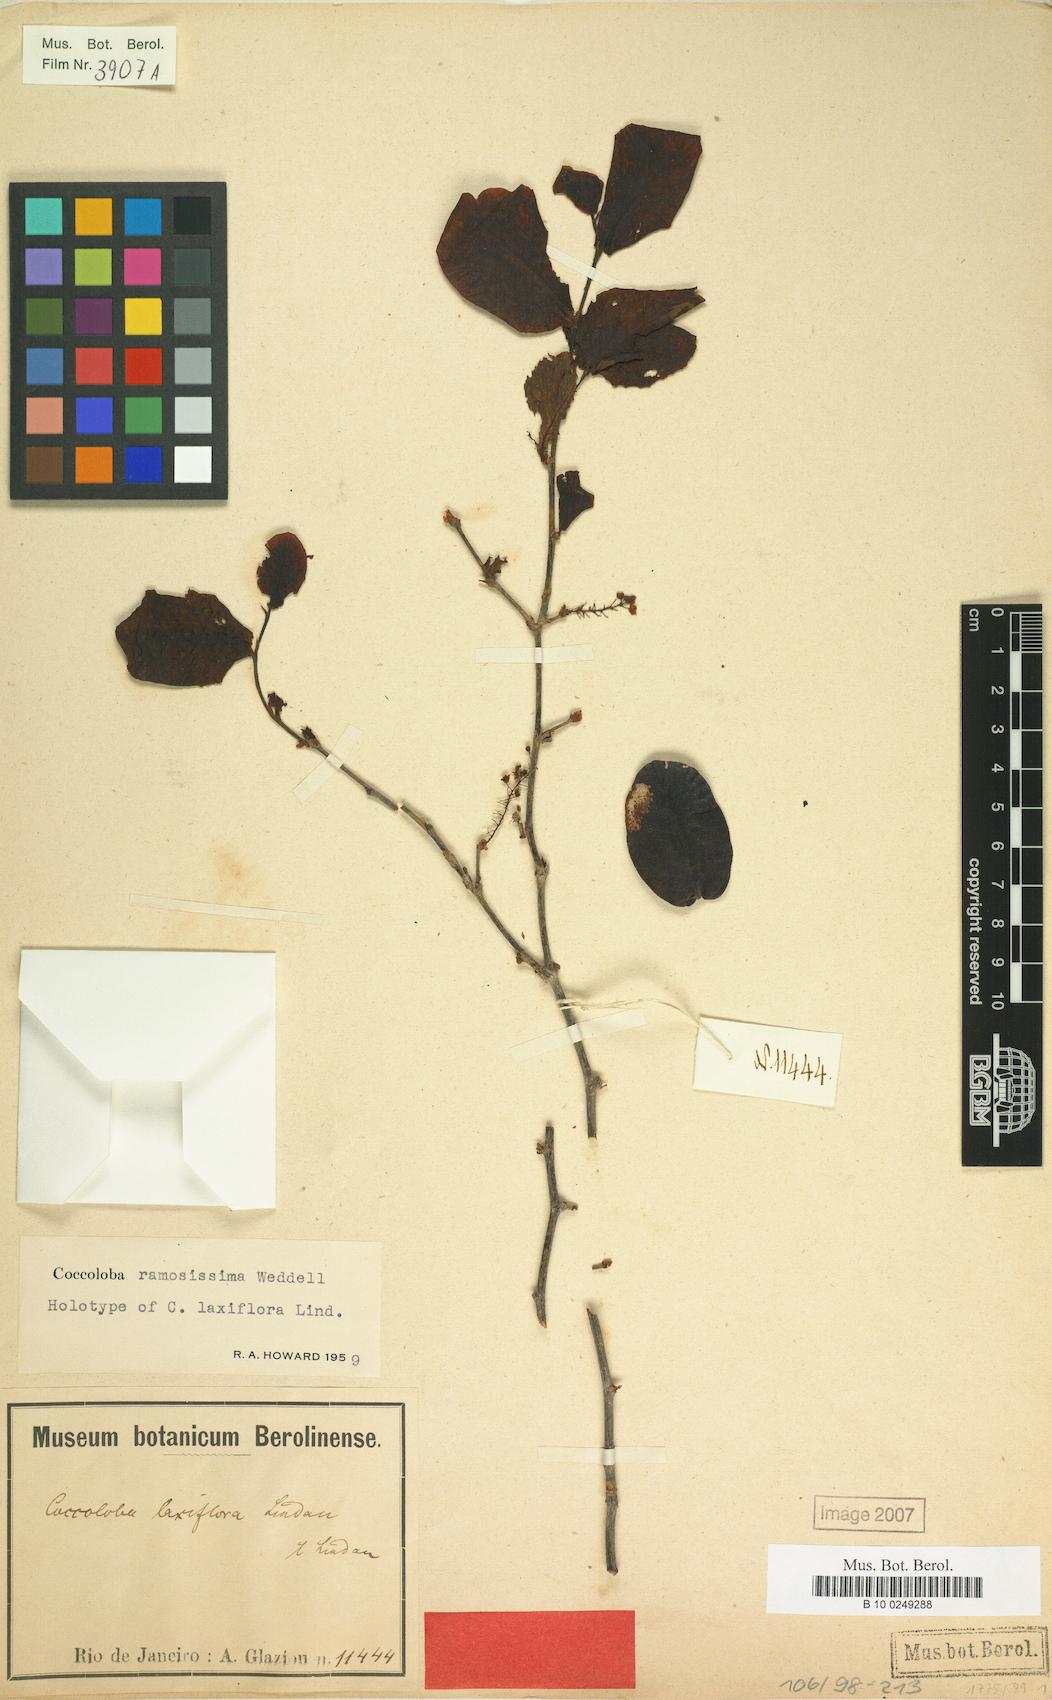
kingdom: Plantae
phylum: Tracheophyta
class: Magnoliopsida
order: Caryophyllales
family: Polygonaceae
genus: Coccoloba
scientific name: Coccoloba ramosisissima
